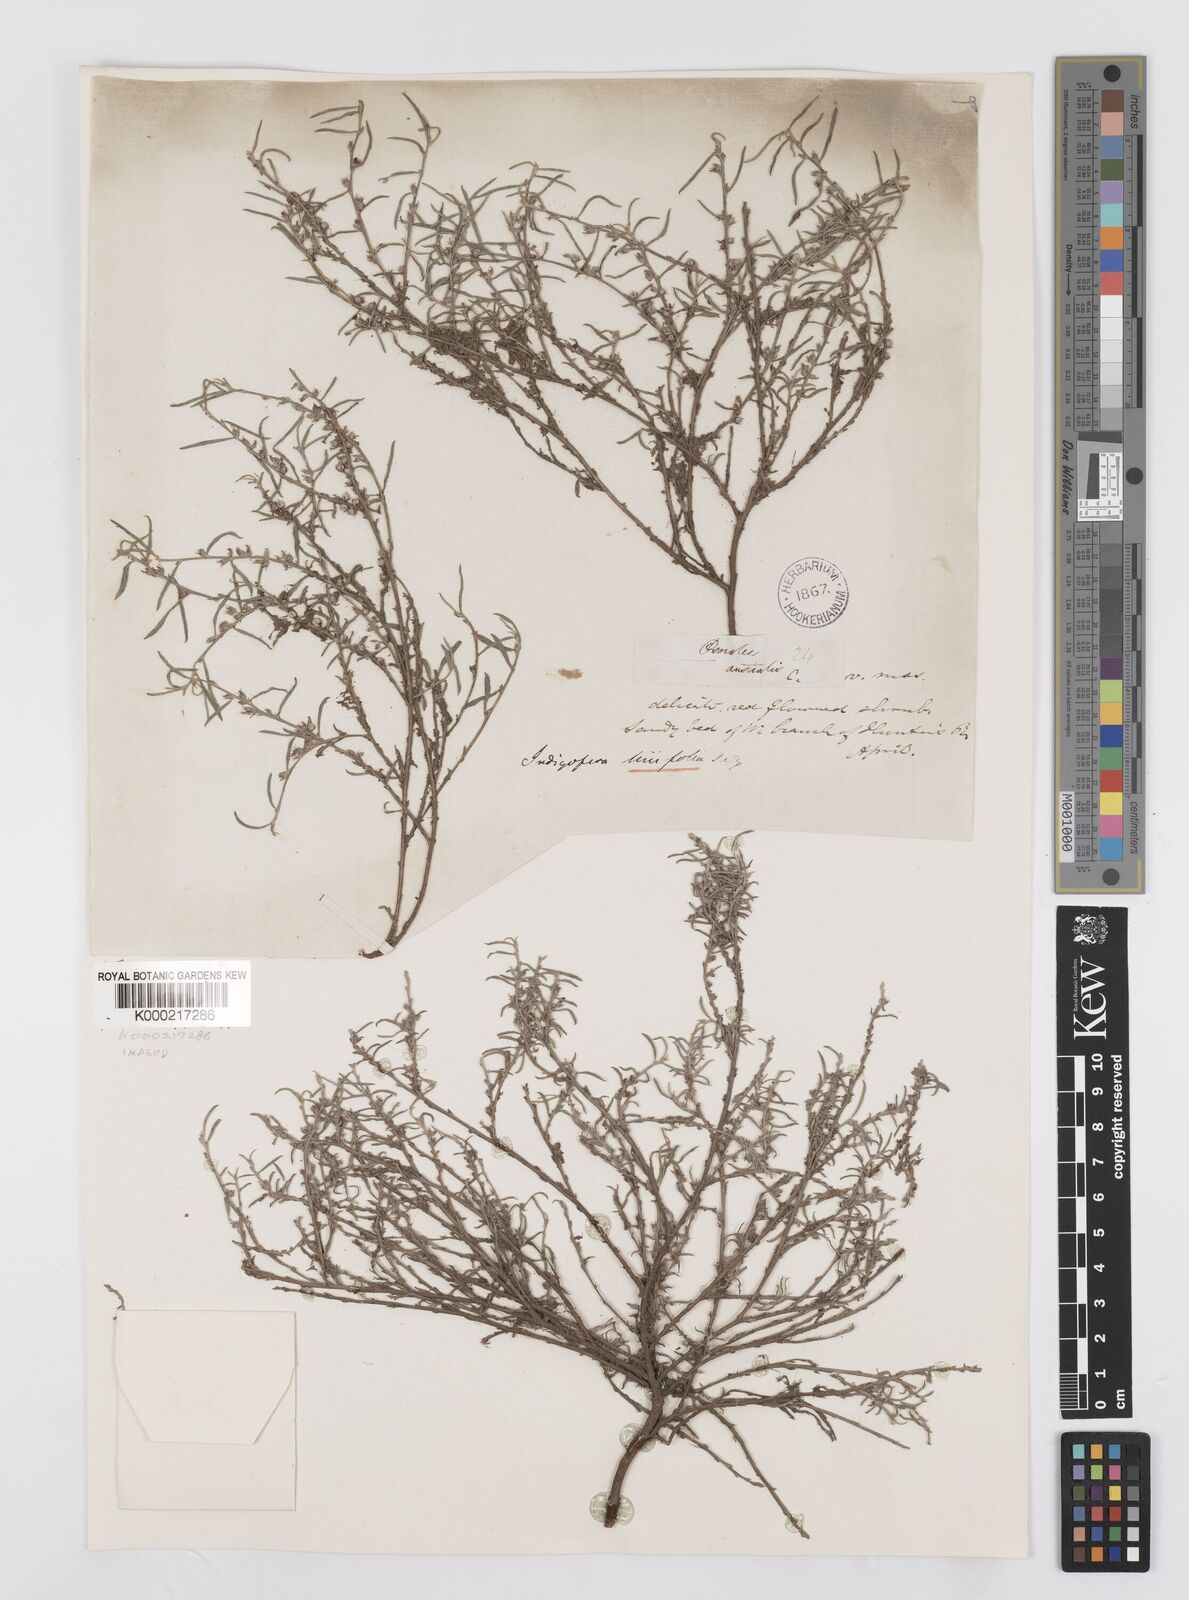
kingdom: Plantae
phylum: Tracheophyta
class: Magnoliopsida
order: Fabales
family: Fabaceae
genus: Indigofera
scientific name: Indigofera linifolia
